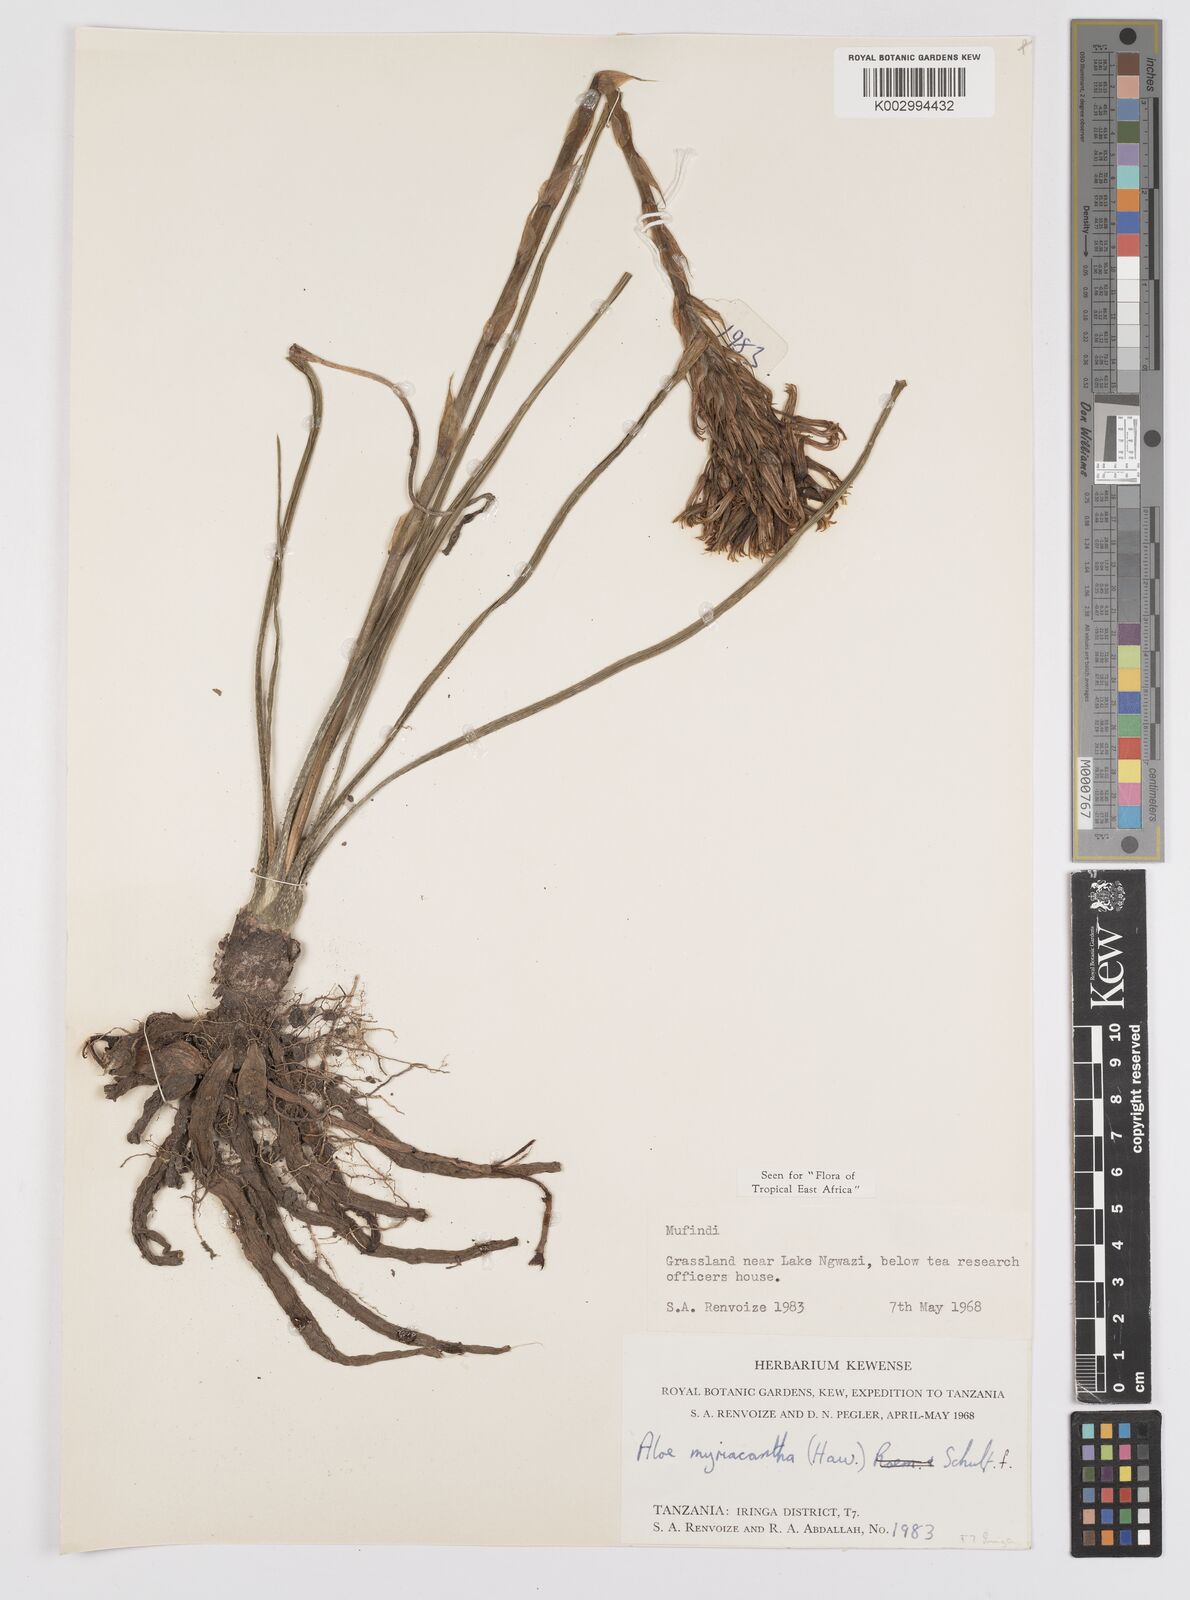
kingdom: Plantae
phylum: Tracheophyta
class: Liliopsida
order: Asparagales
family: Asphodelaceae
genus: Aloe
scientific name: Aloe myriacantha
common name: Grass aloe
